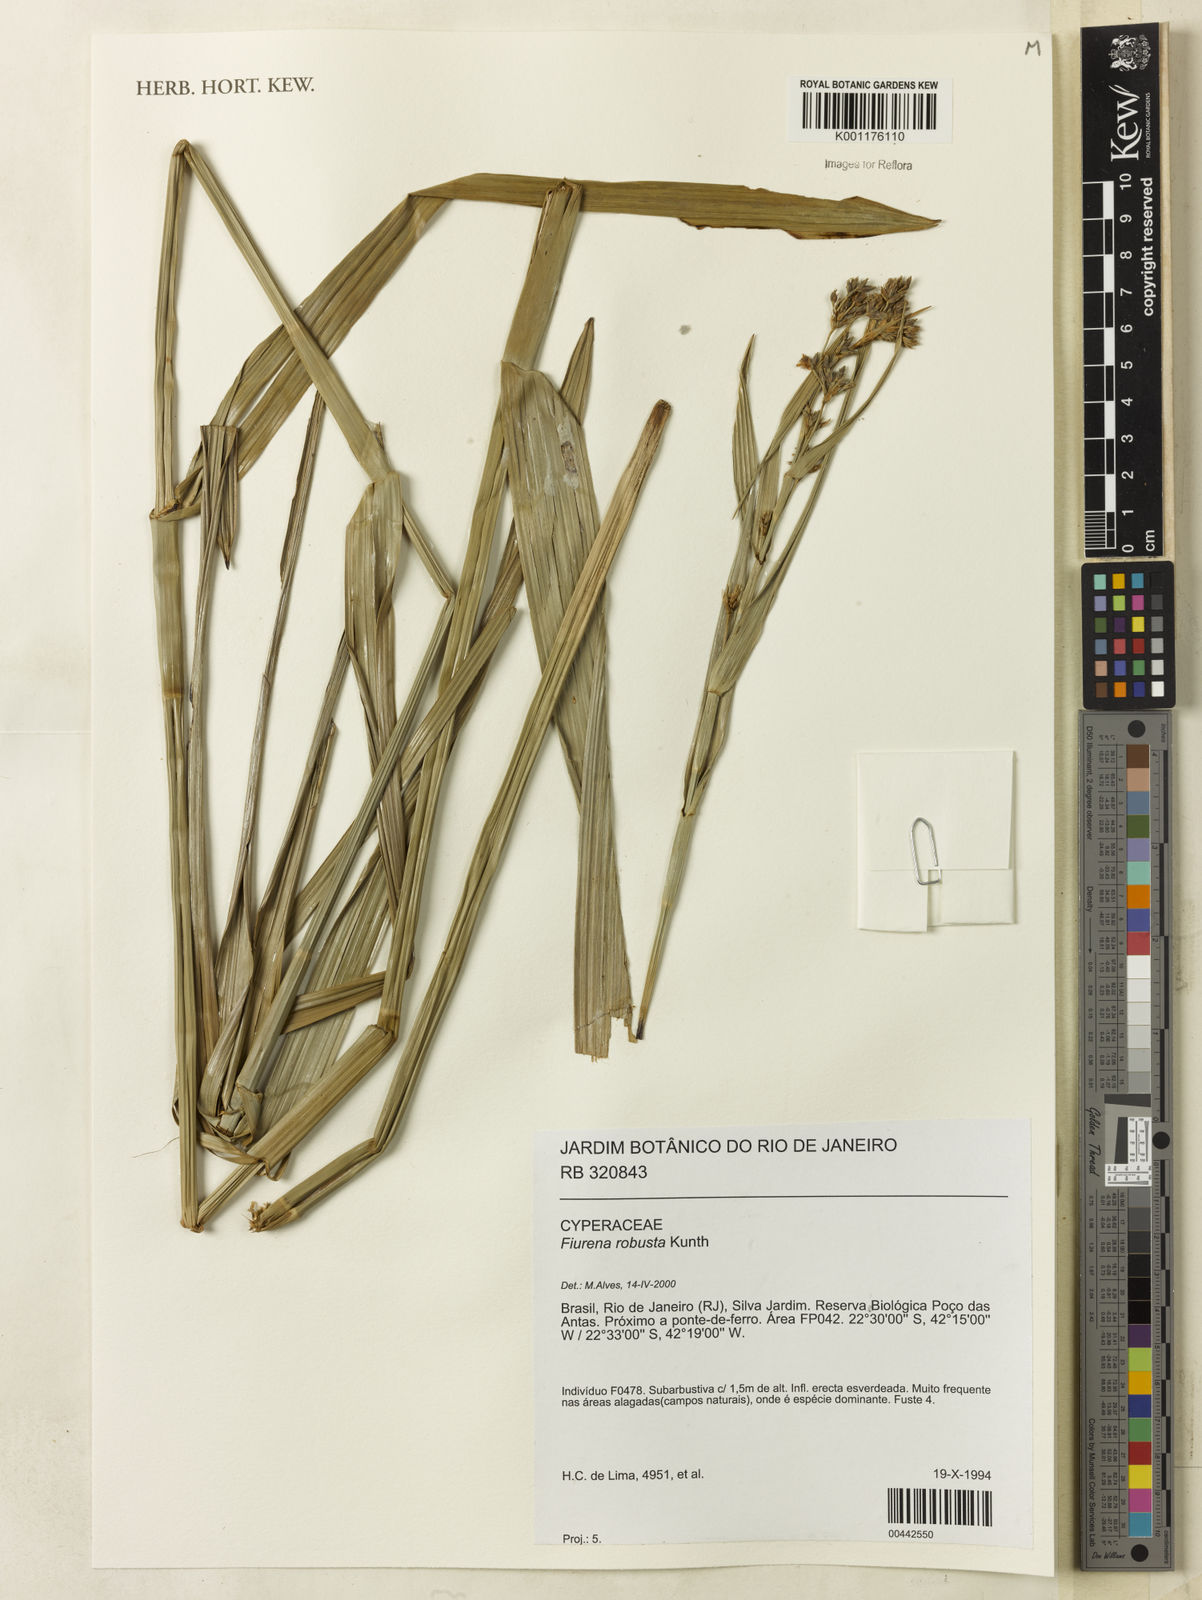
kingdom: Plantae
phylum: Tracheophyta
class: Liliopsida
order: Poales
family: Cyperaceae
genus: Fuirena
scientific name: Fuirena robusta
